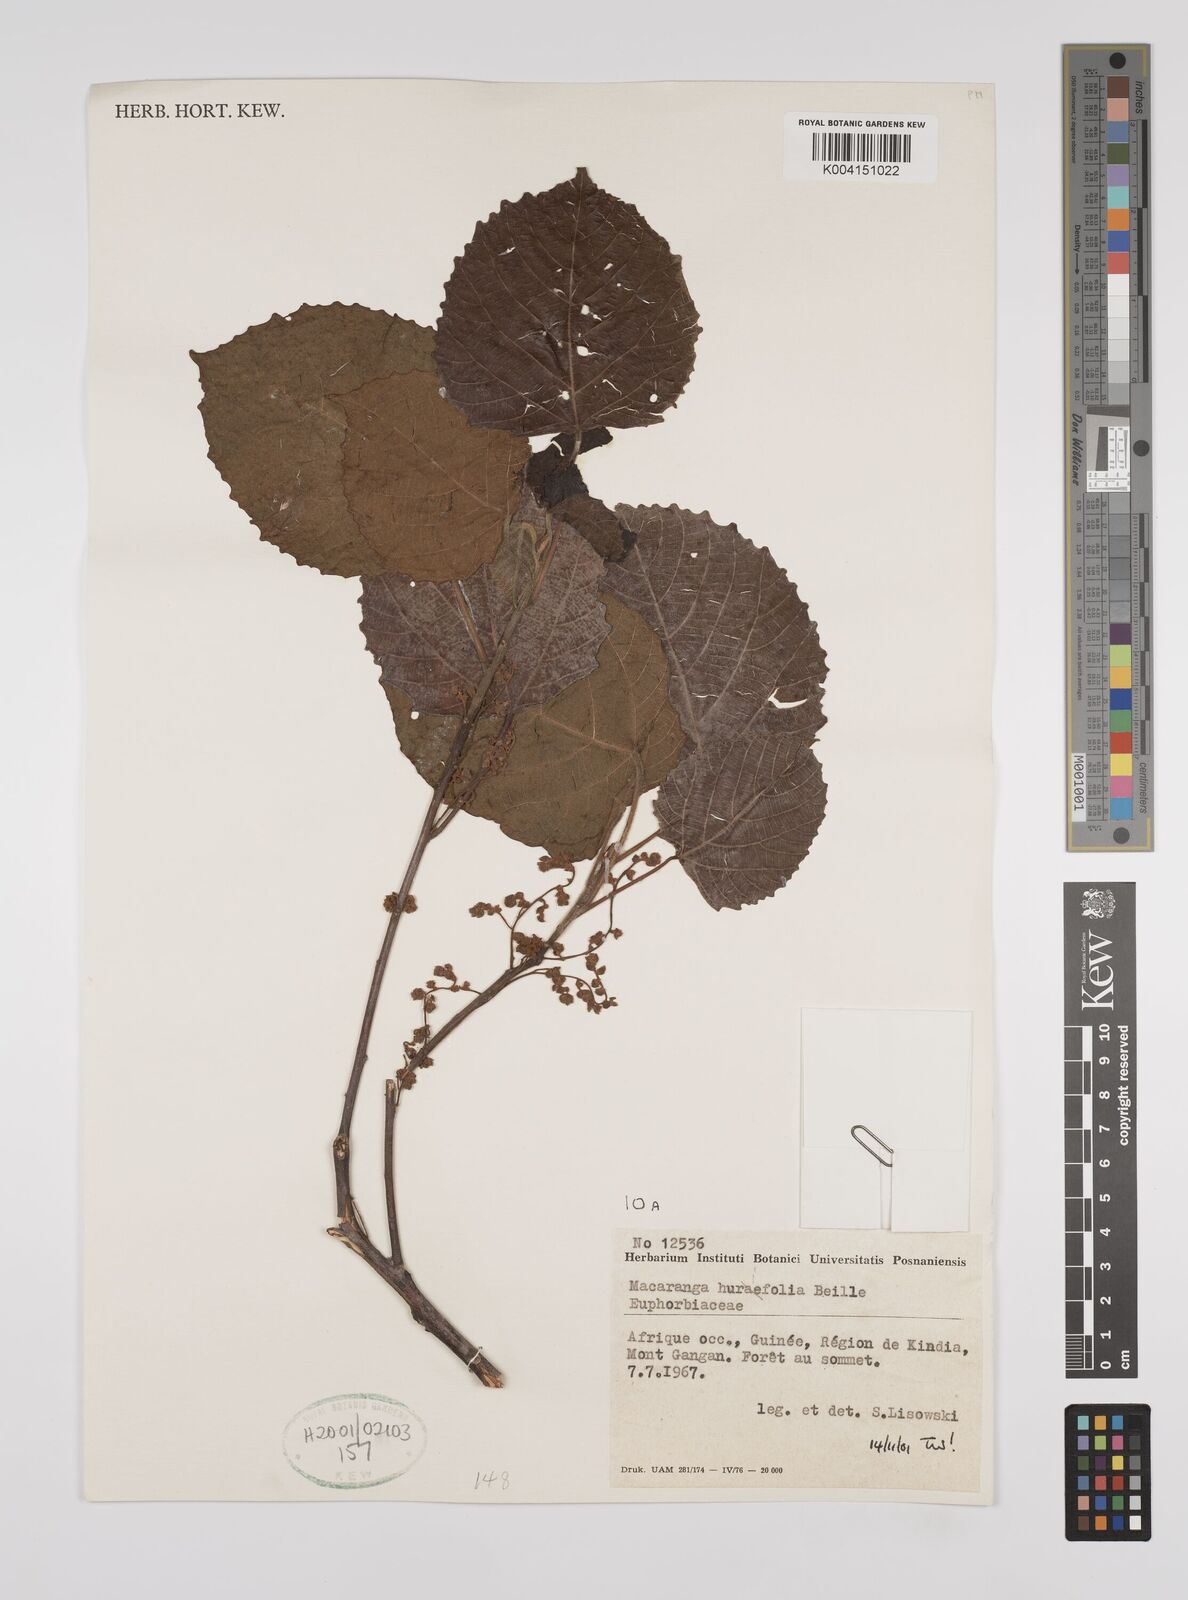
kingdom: Plantae
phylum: Tracheophyta
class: Magnoliopsida
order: Malpighiales
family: Euphorbiaceae
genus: Macaranga
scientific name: Macaranga hurifolia
